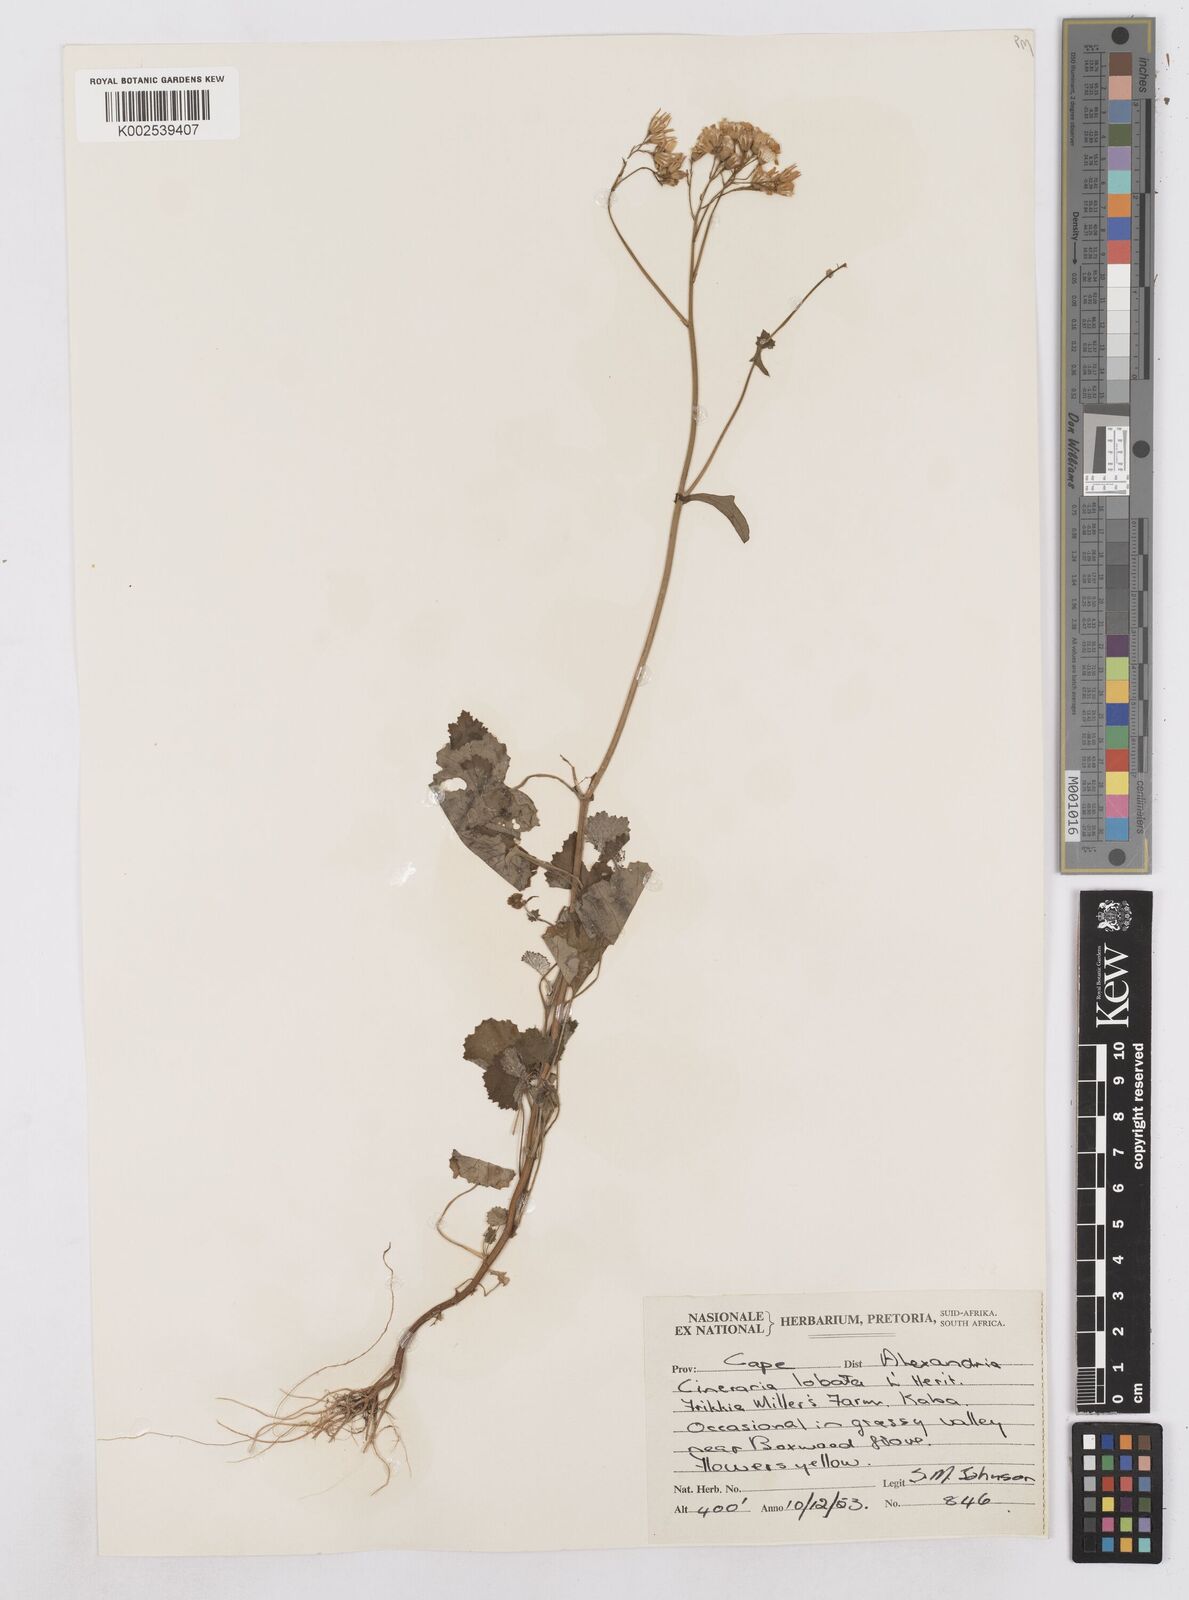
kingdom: Plantae
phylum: Tracheophyta
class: Magnoliopsida
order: Asterales
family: Asteraceae
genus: Cineraria
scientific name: Cineraria
